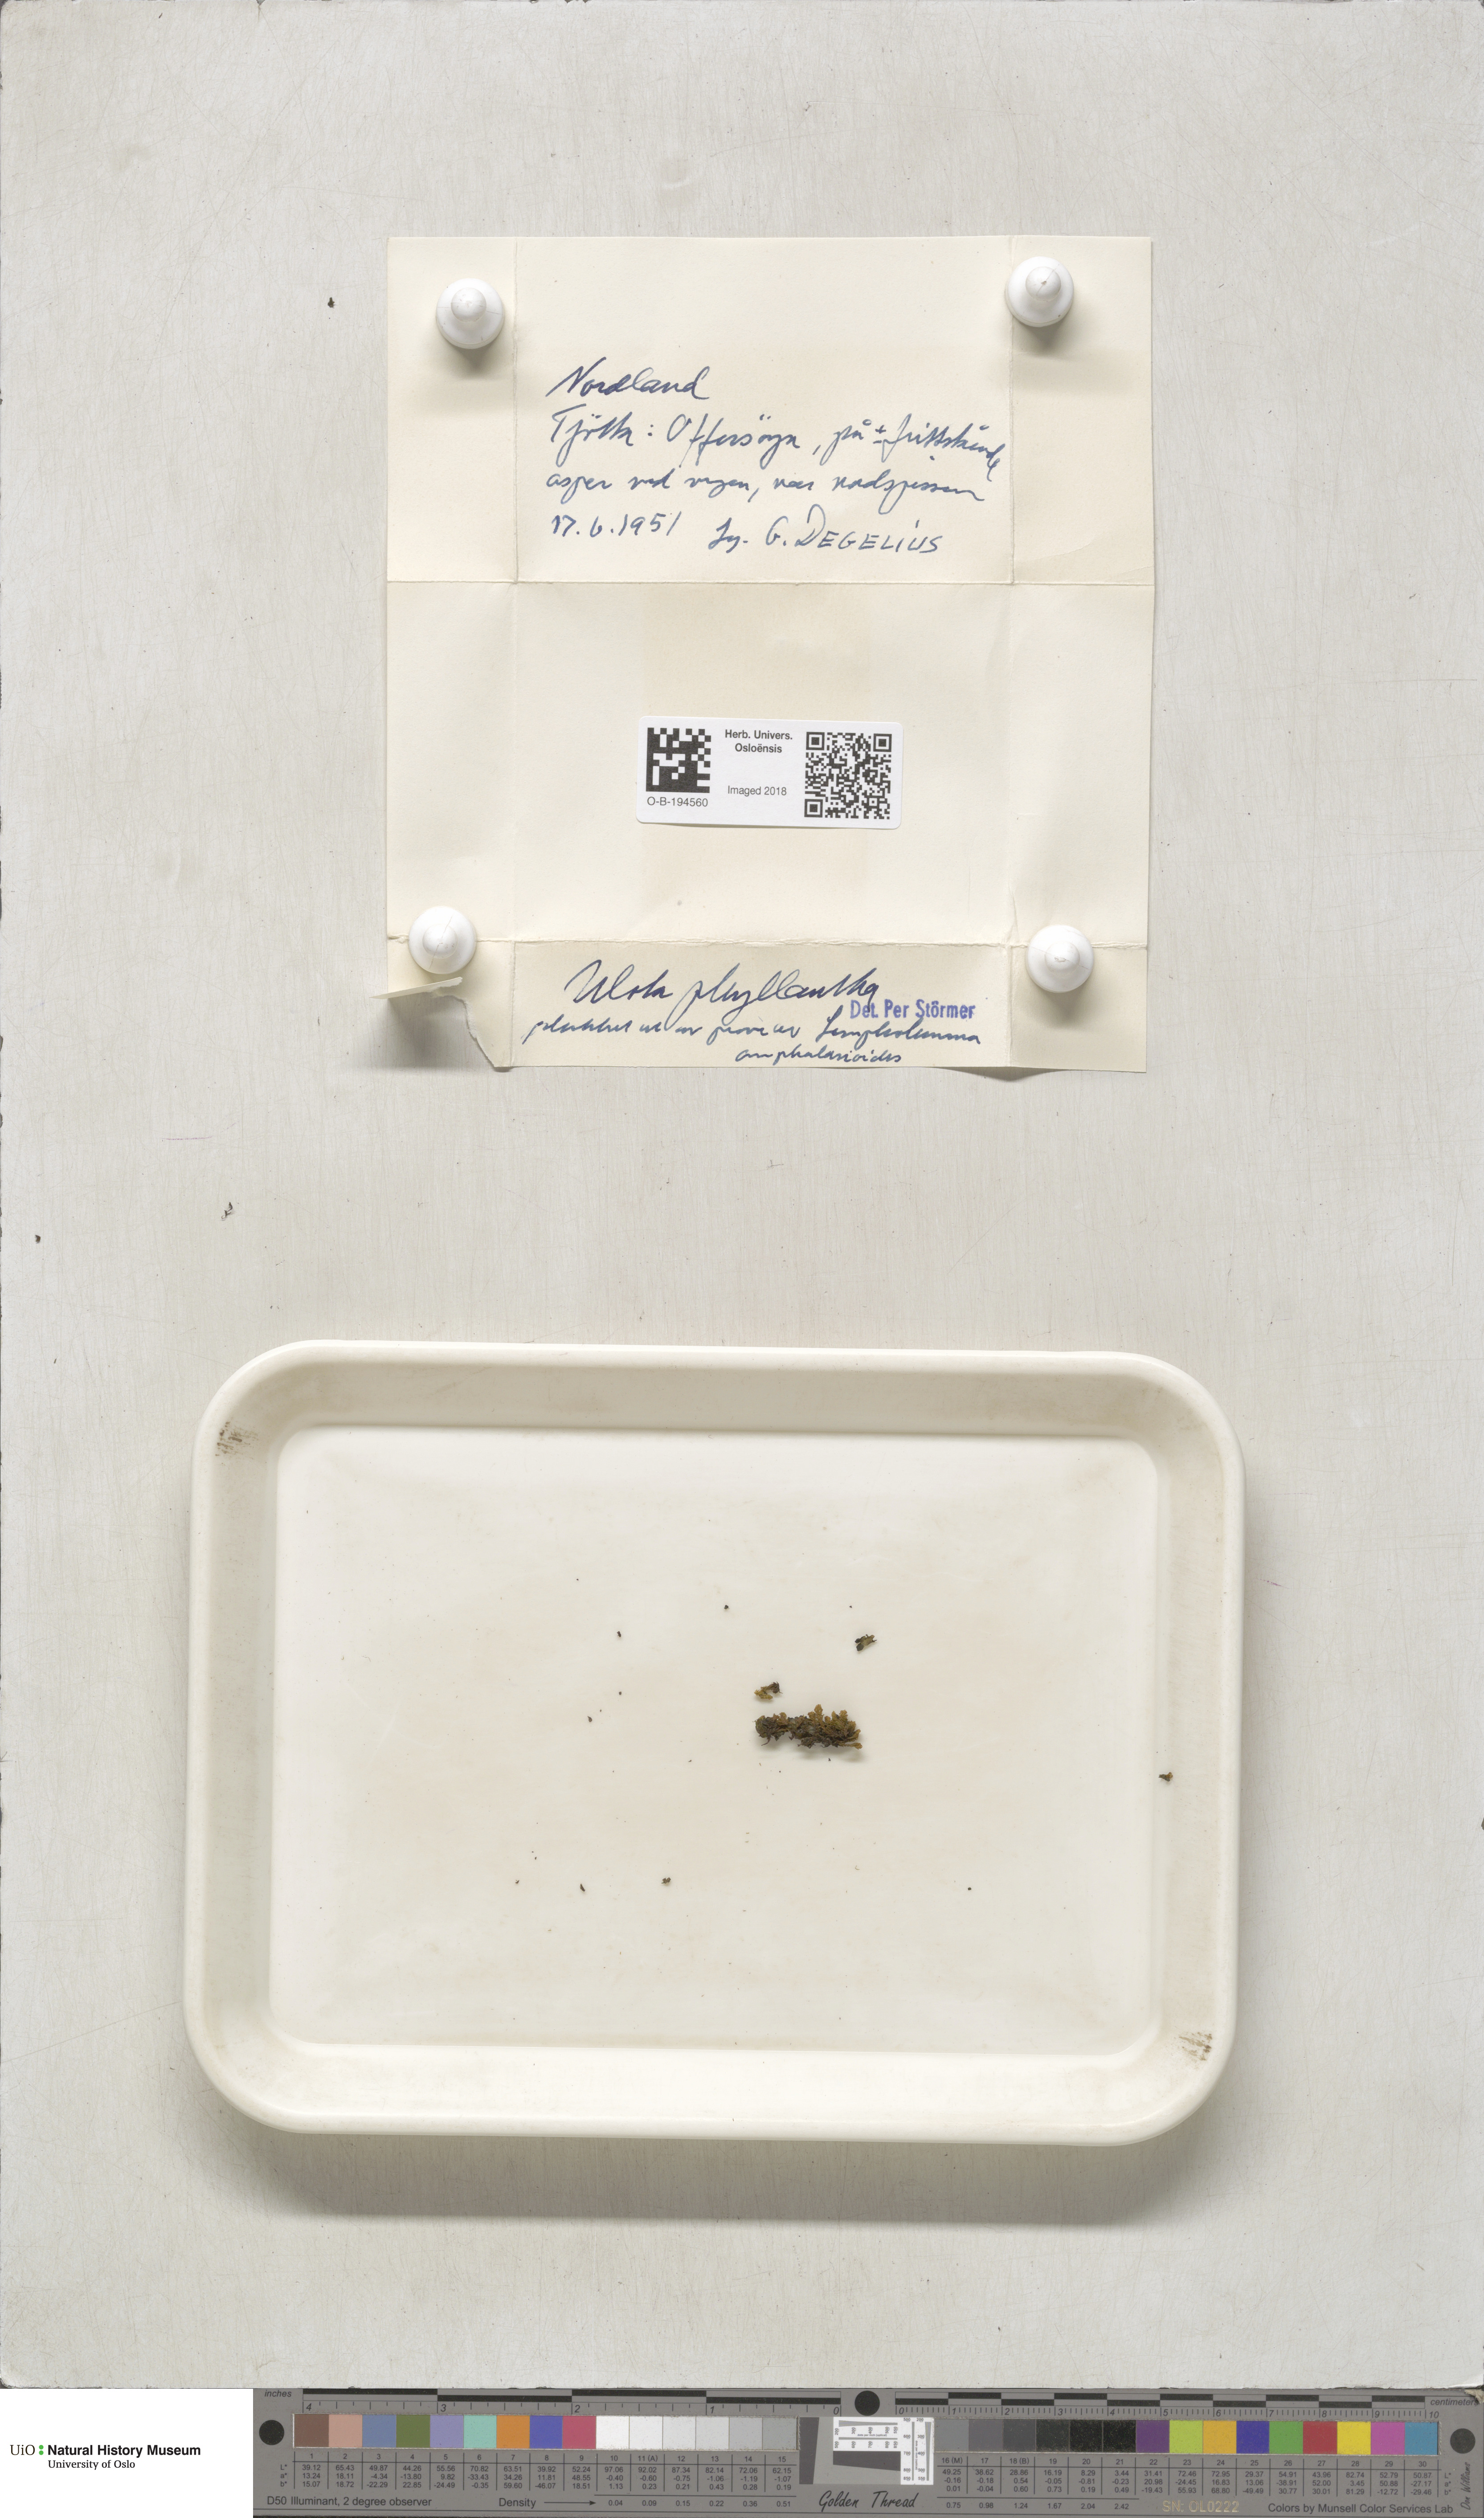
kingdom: Plantae
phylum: Bryophyta
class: Bryopsida
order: Orthotrichales
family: Orthotrichaceae
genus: Plenogemma
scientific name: Plenogemma phyllantha
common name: Frizzled pincushion
